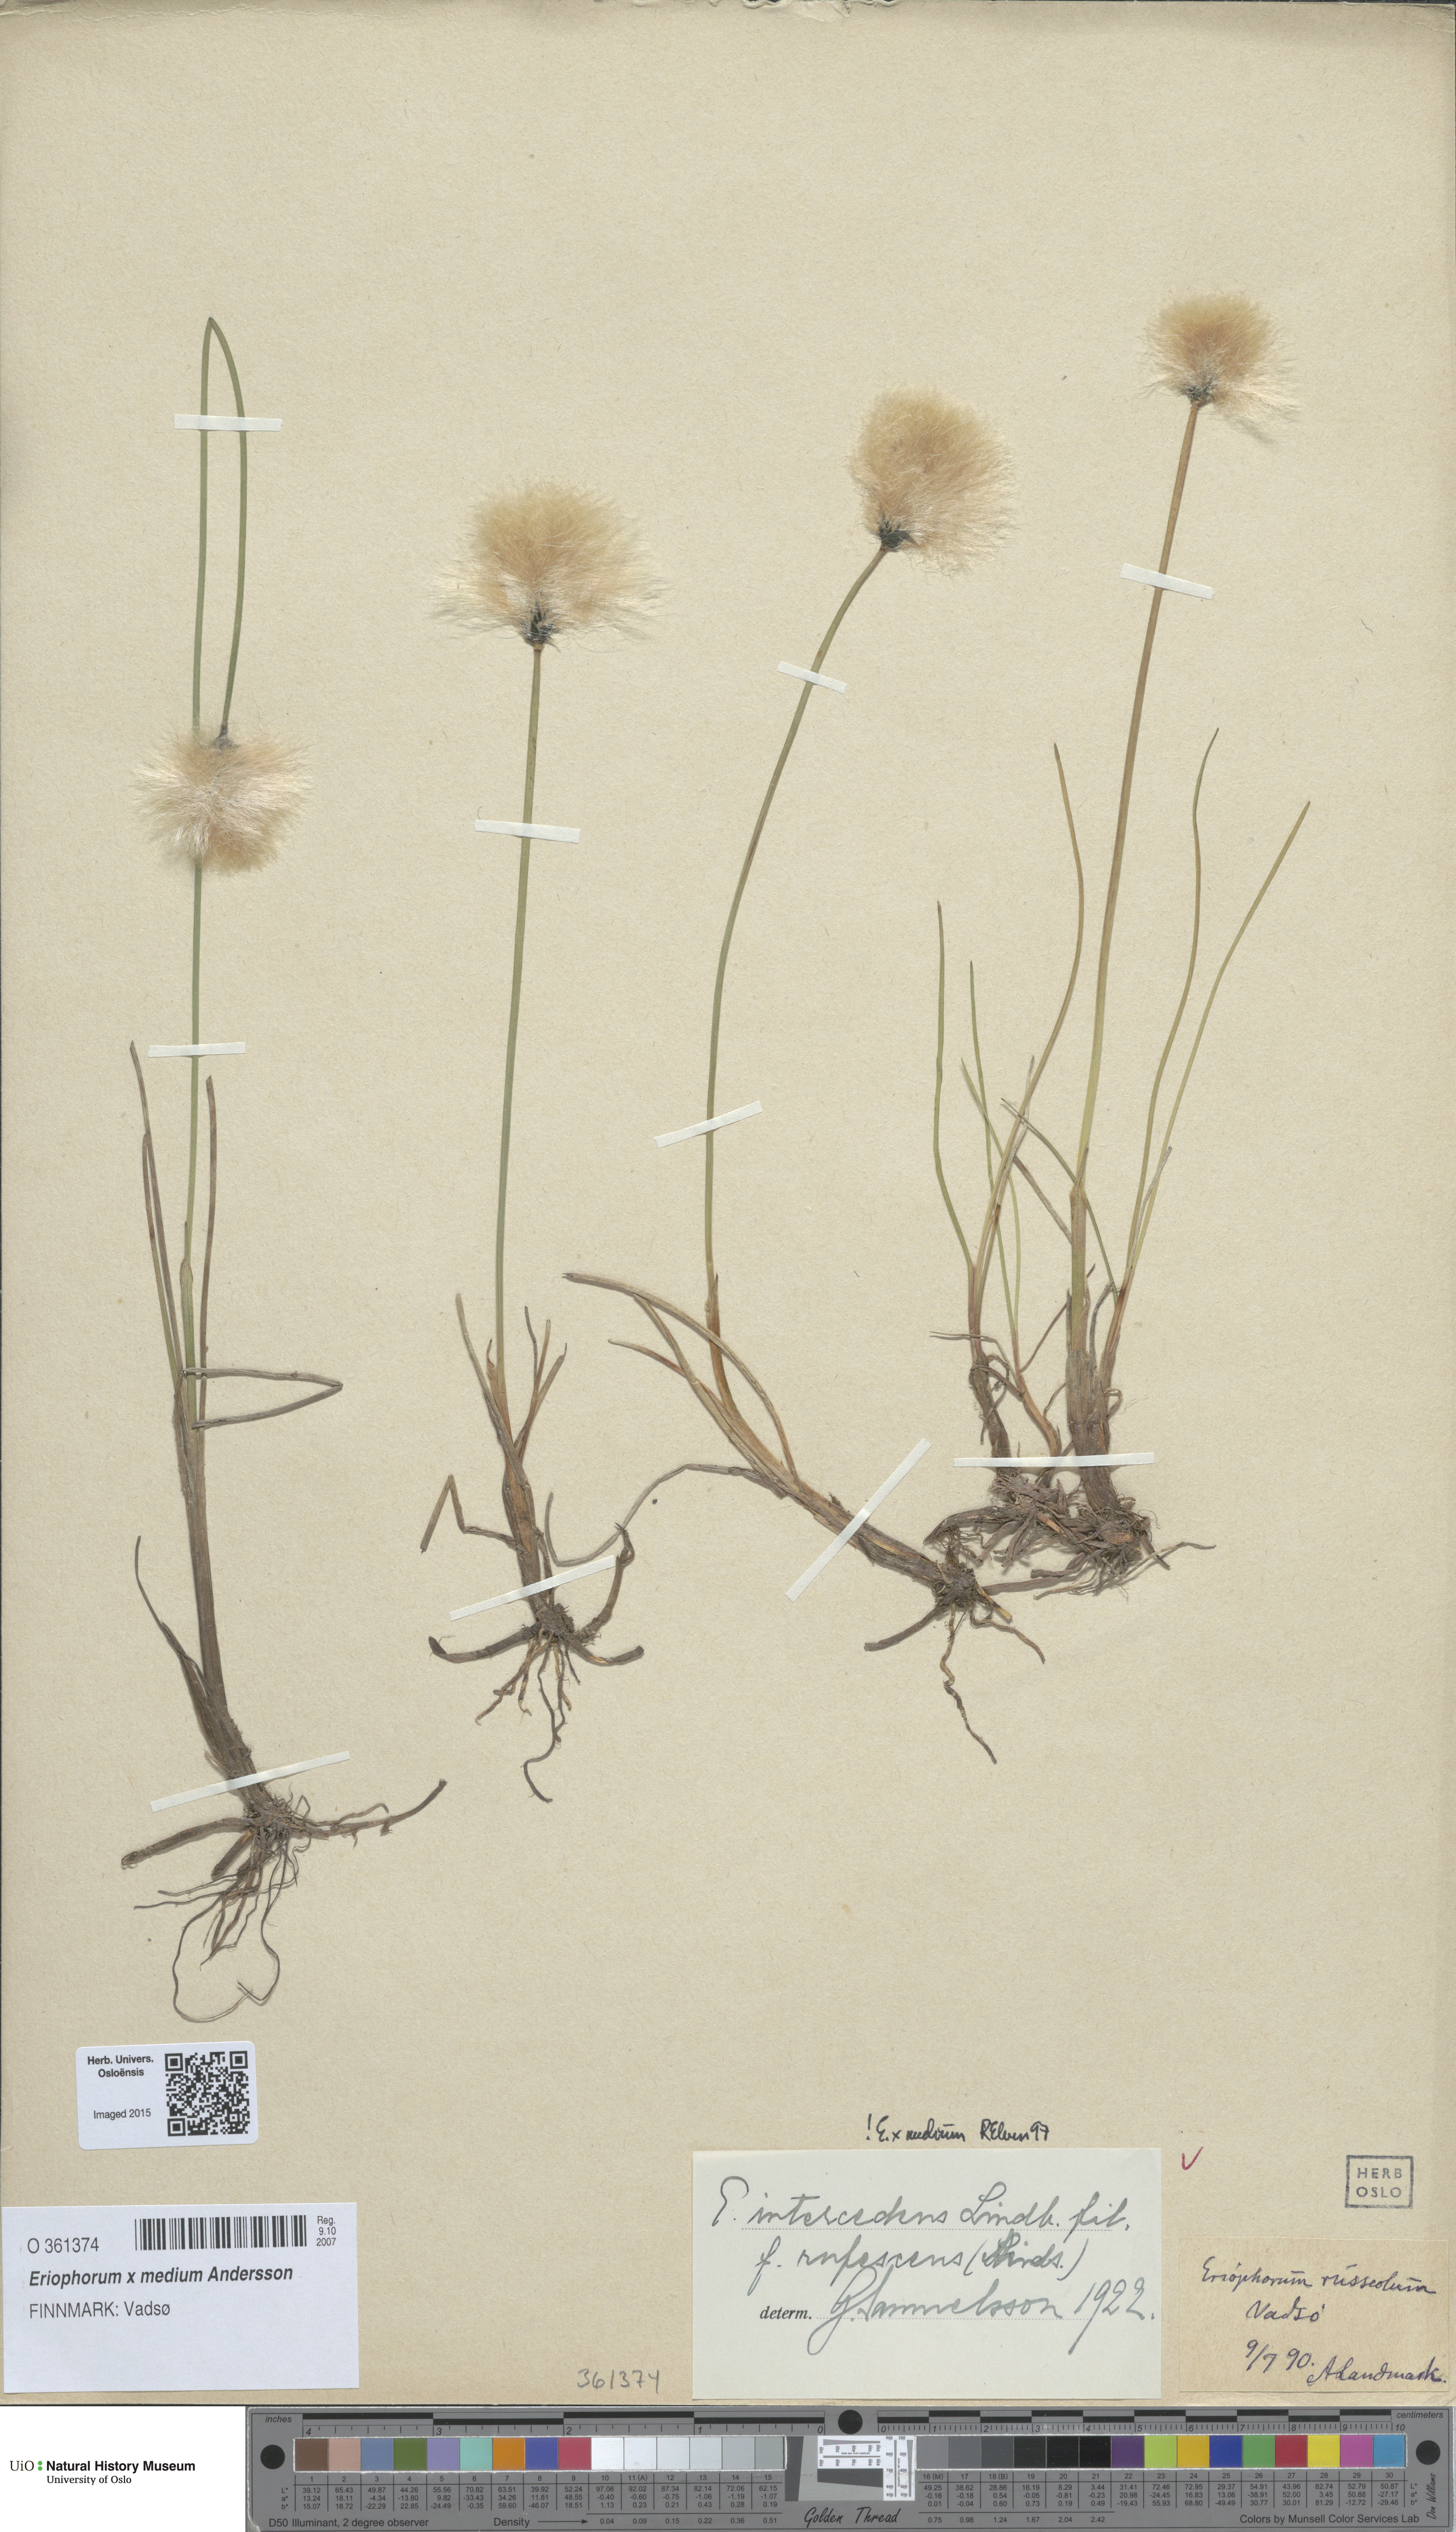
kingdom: Plantae
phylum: Tracheophyta
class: Liliopsida
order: Poales
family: Cyperaceae
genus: Eriophorum
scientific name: Eriophorum medium
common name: Intermediate cottongrass
